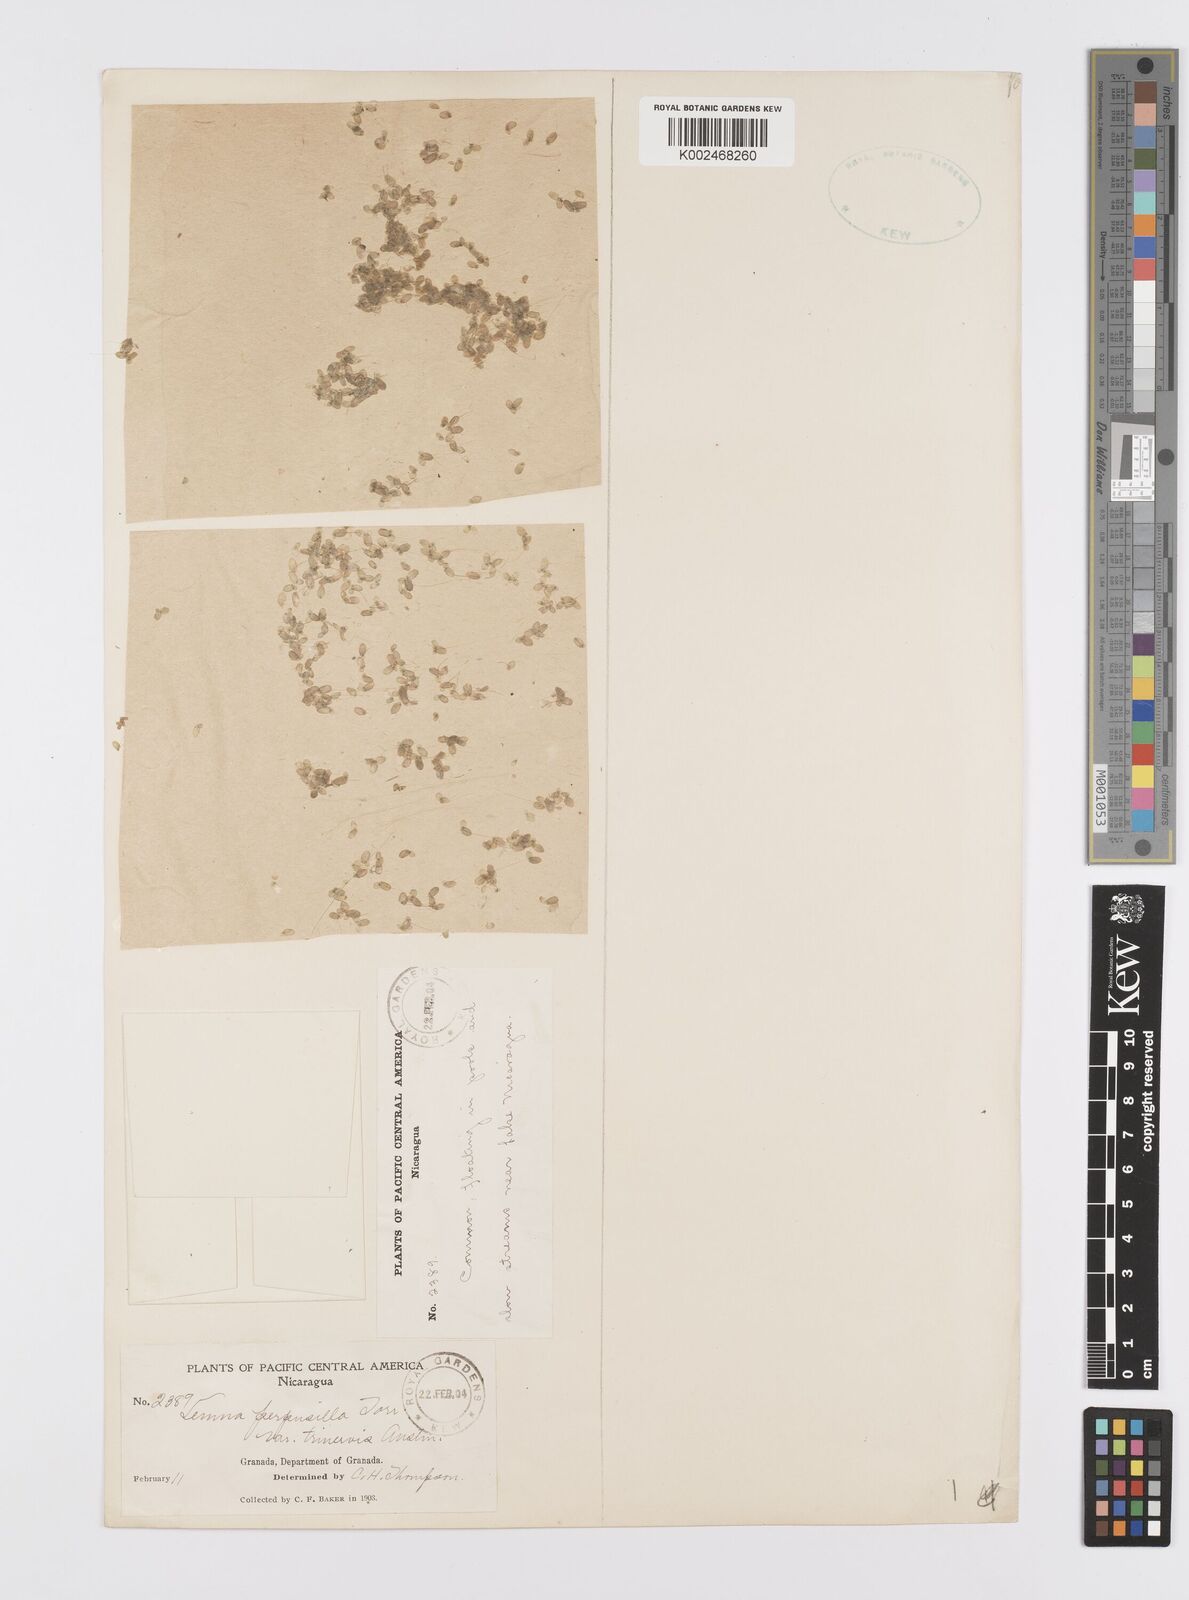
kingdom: Plantae
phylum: Tracheophyta
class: Liliopsida
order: Alismatales
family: Araceae
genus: Lemna
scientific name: Lemna perpusilla
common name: Duckweed
